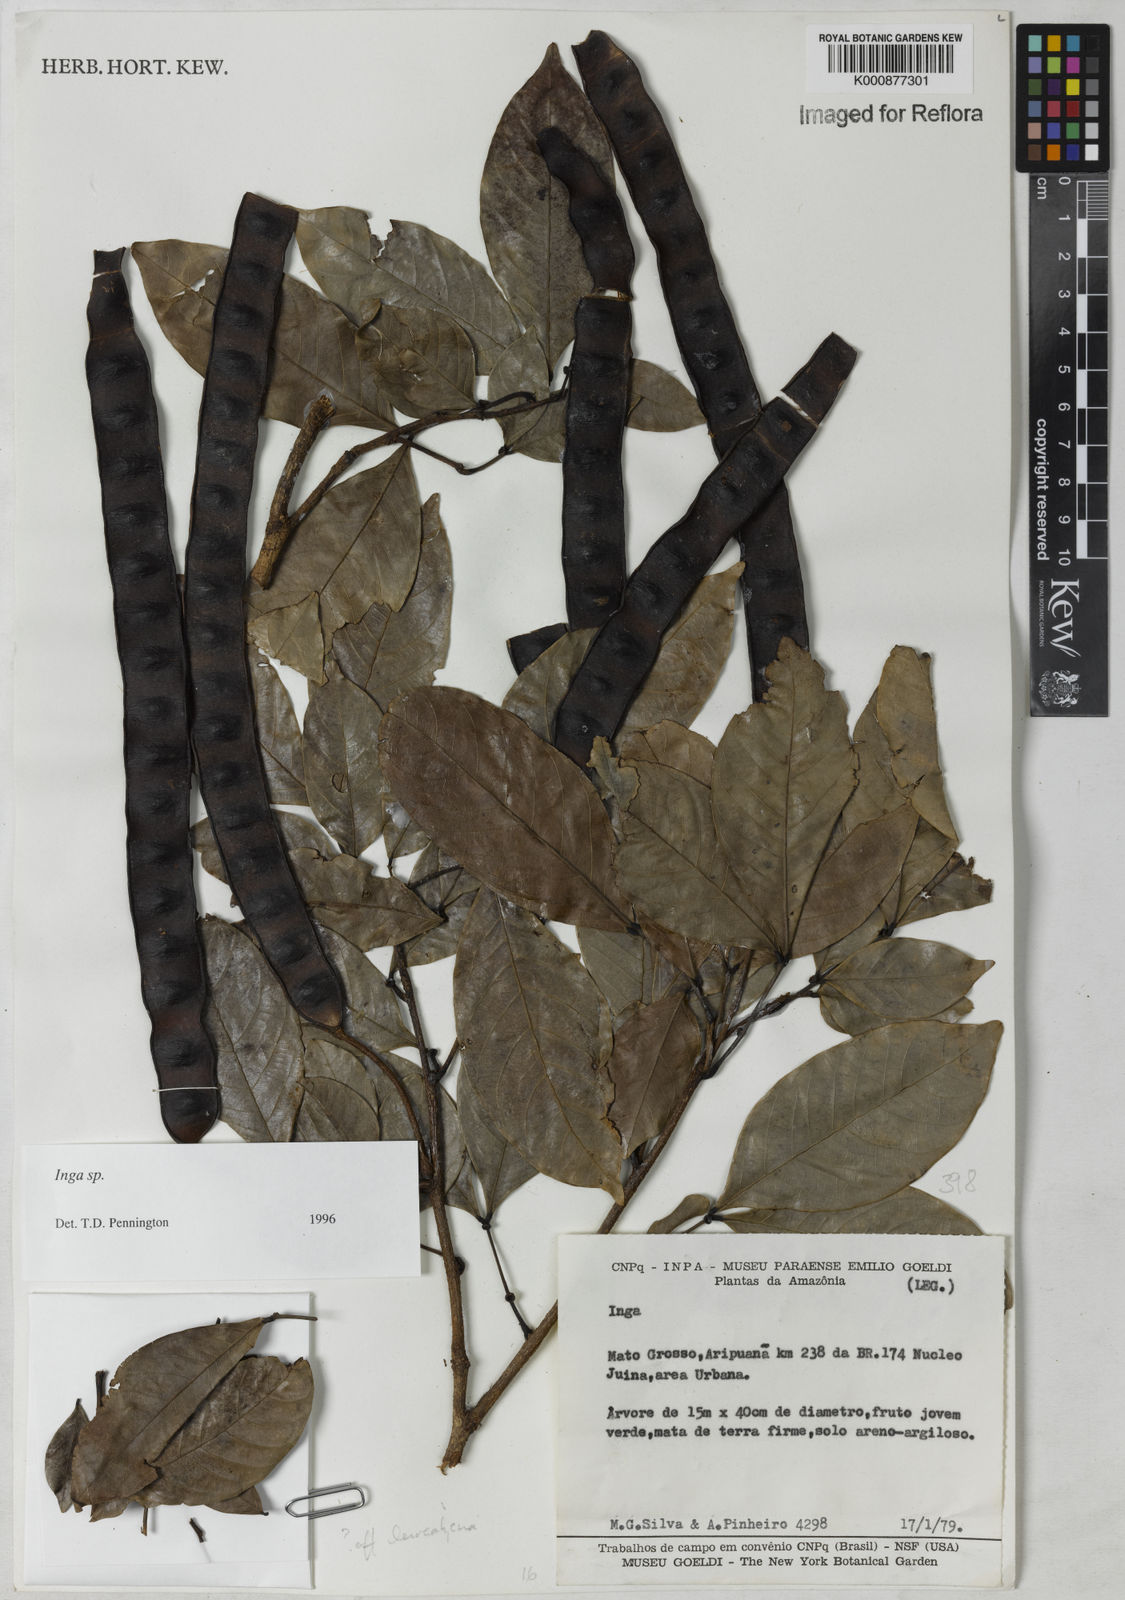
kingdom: Plantae
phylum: Tracheophyta
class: Magnoliopsida
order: Fabales
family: Fabaceae
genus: Inga
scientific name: Inga
